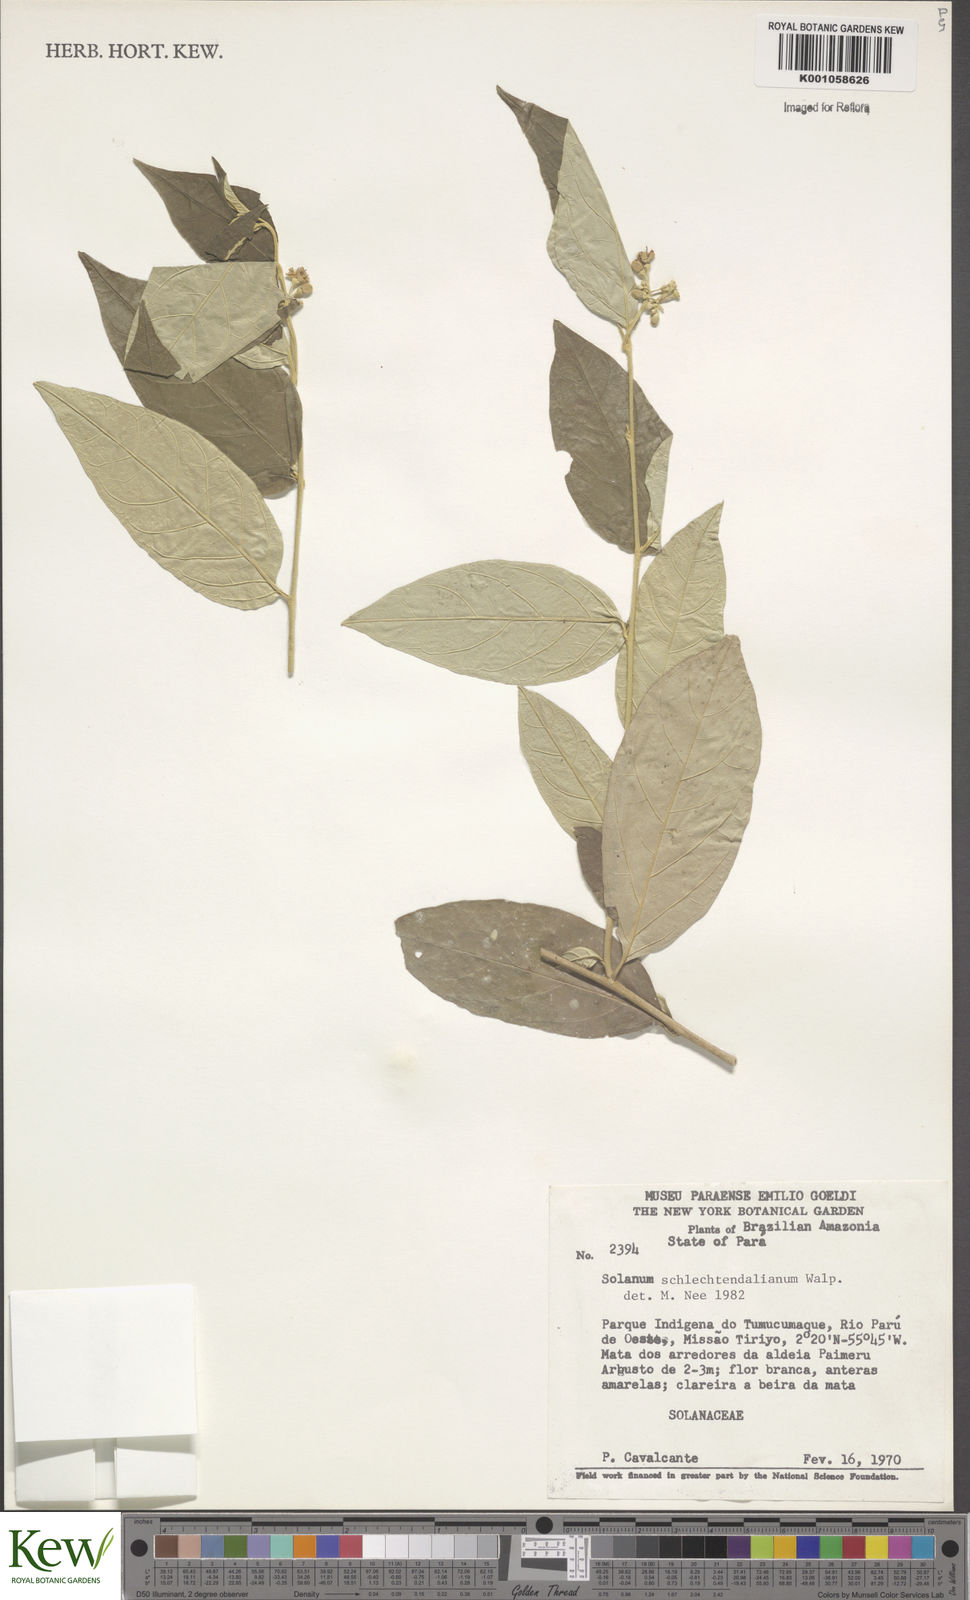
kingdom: Plantae
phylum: Tracheophyta
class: Magnoliopsida
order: Solanales
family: Solanaceae
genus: Solanum
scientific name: Solanum schlechtendalianum
